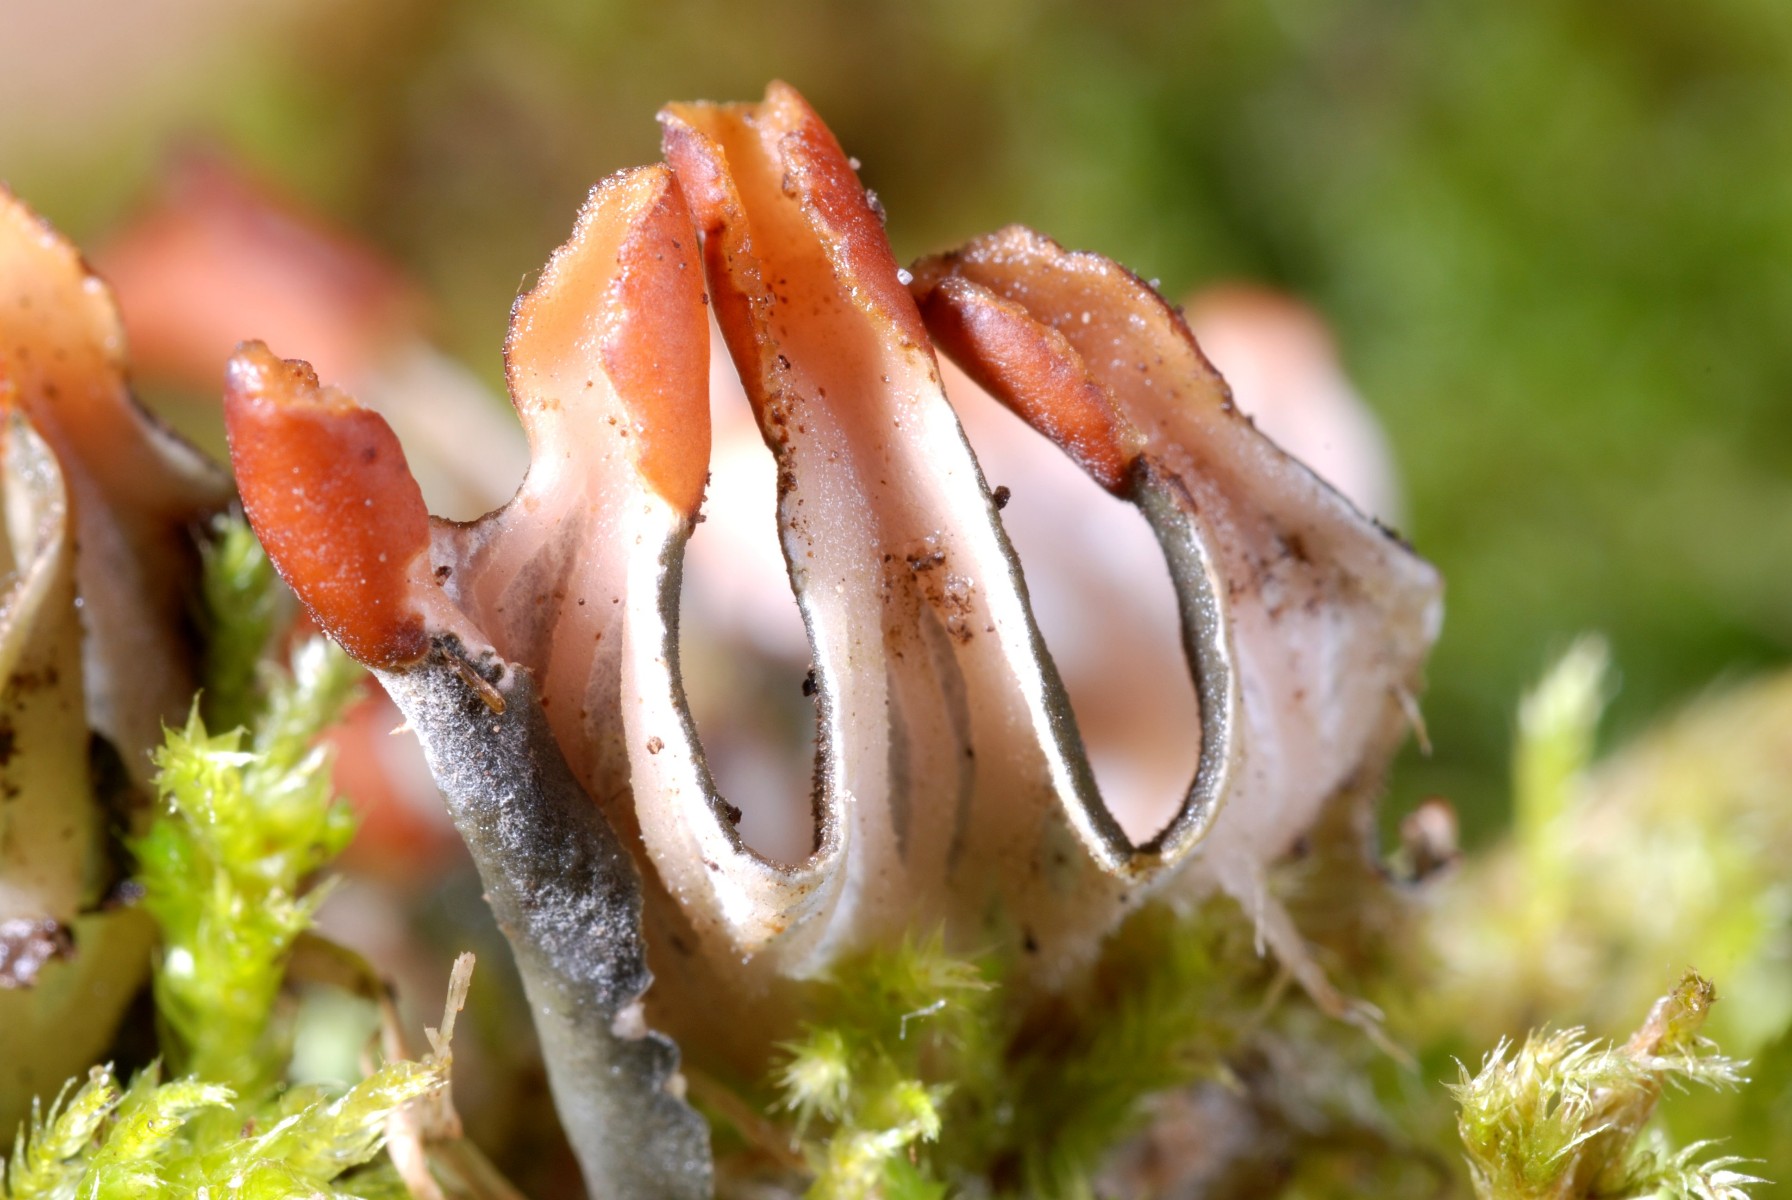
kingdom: Fungi
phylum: Ascomycota
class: Lecanoromycetes
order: Peltigerales
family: Peltigeraceae
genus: Peltigera
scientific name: Peltigera didactyla
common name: liden skjoldlav
